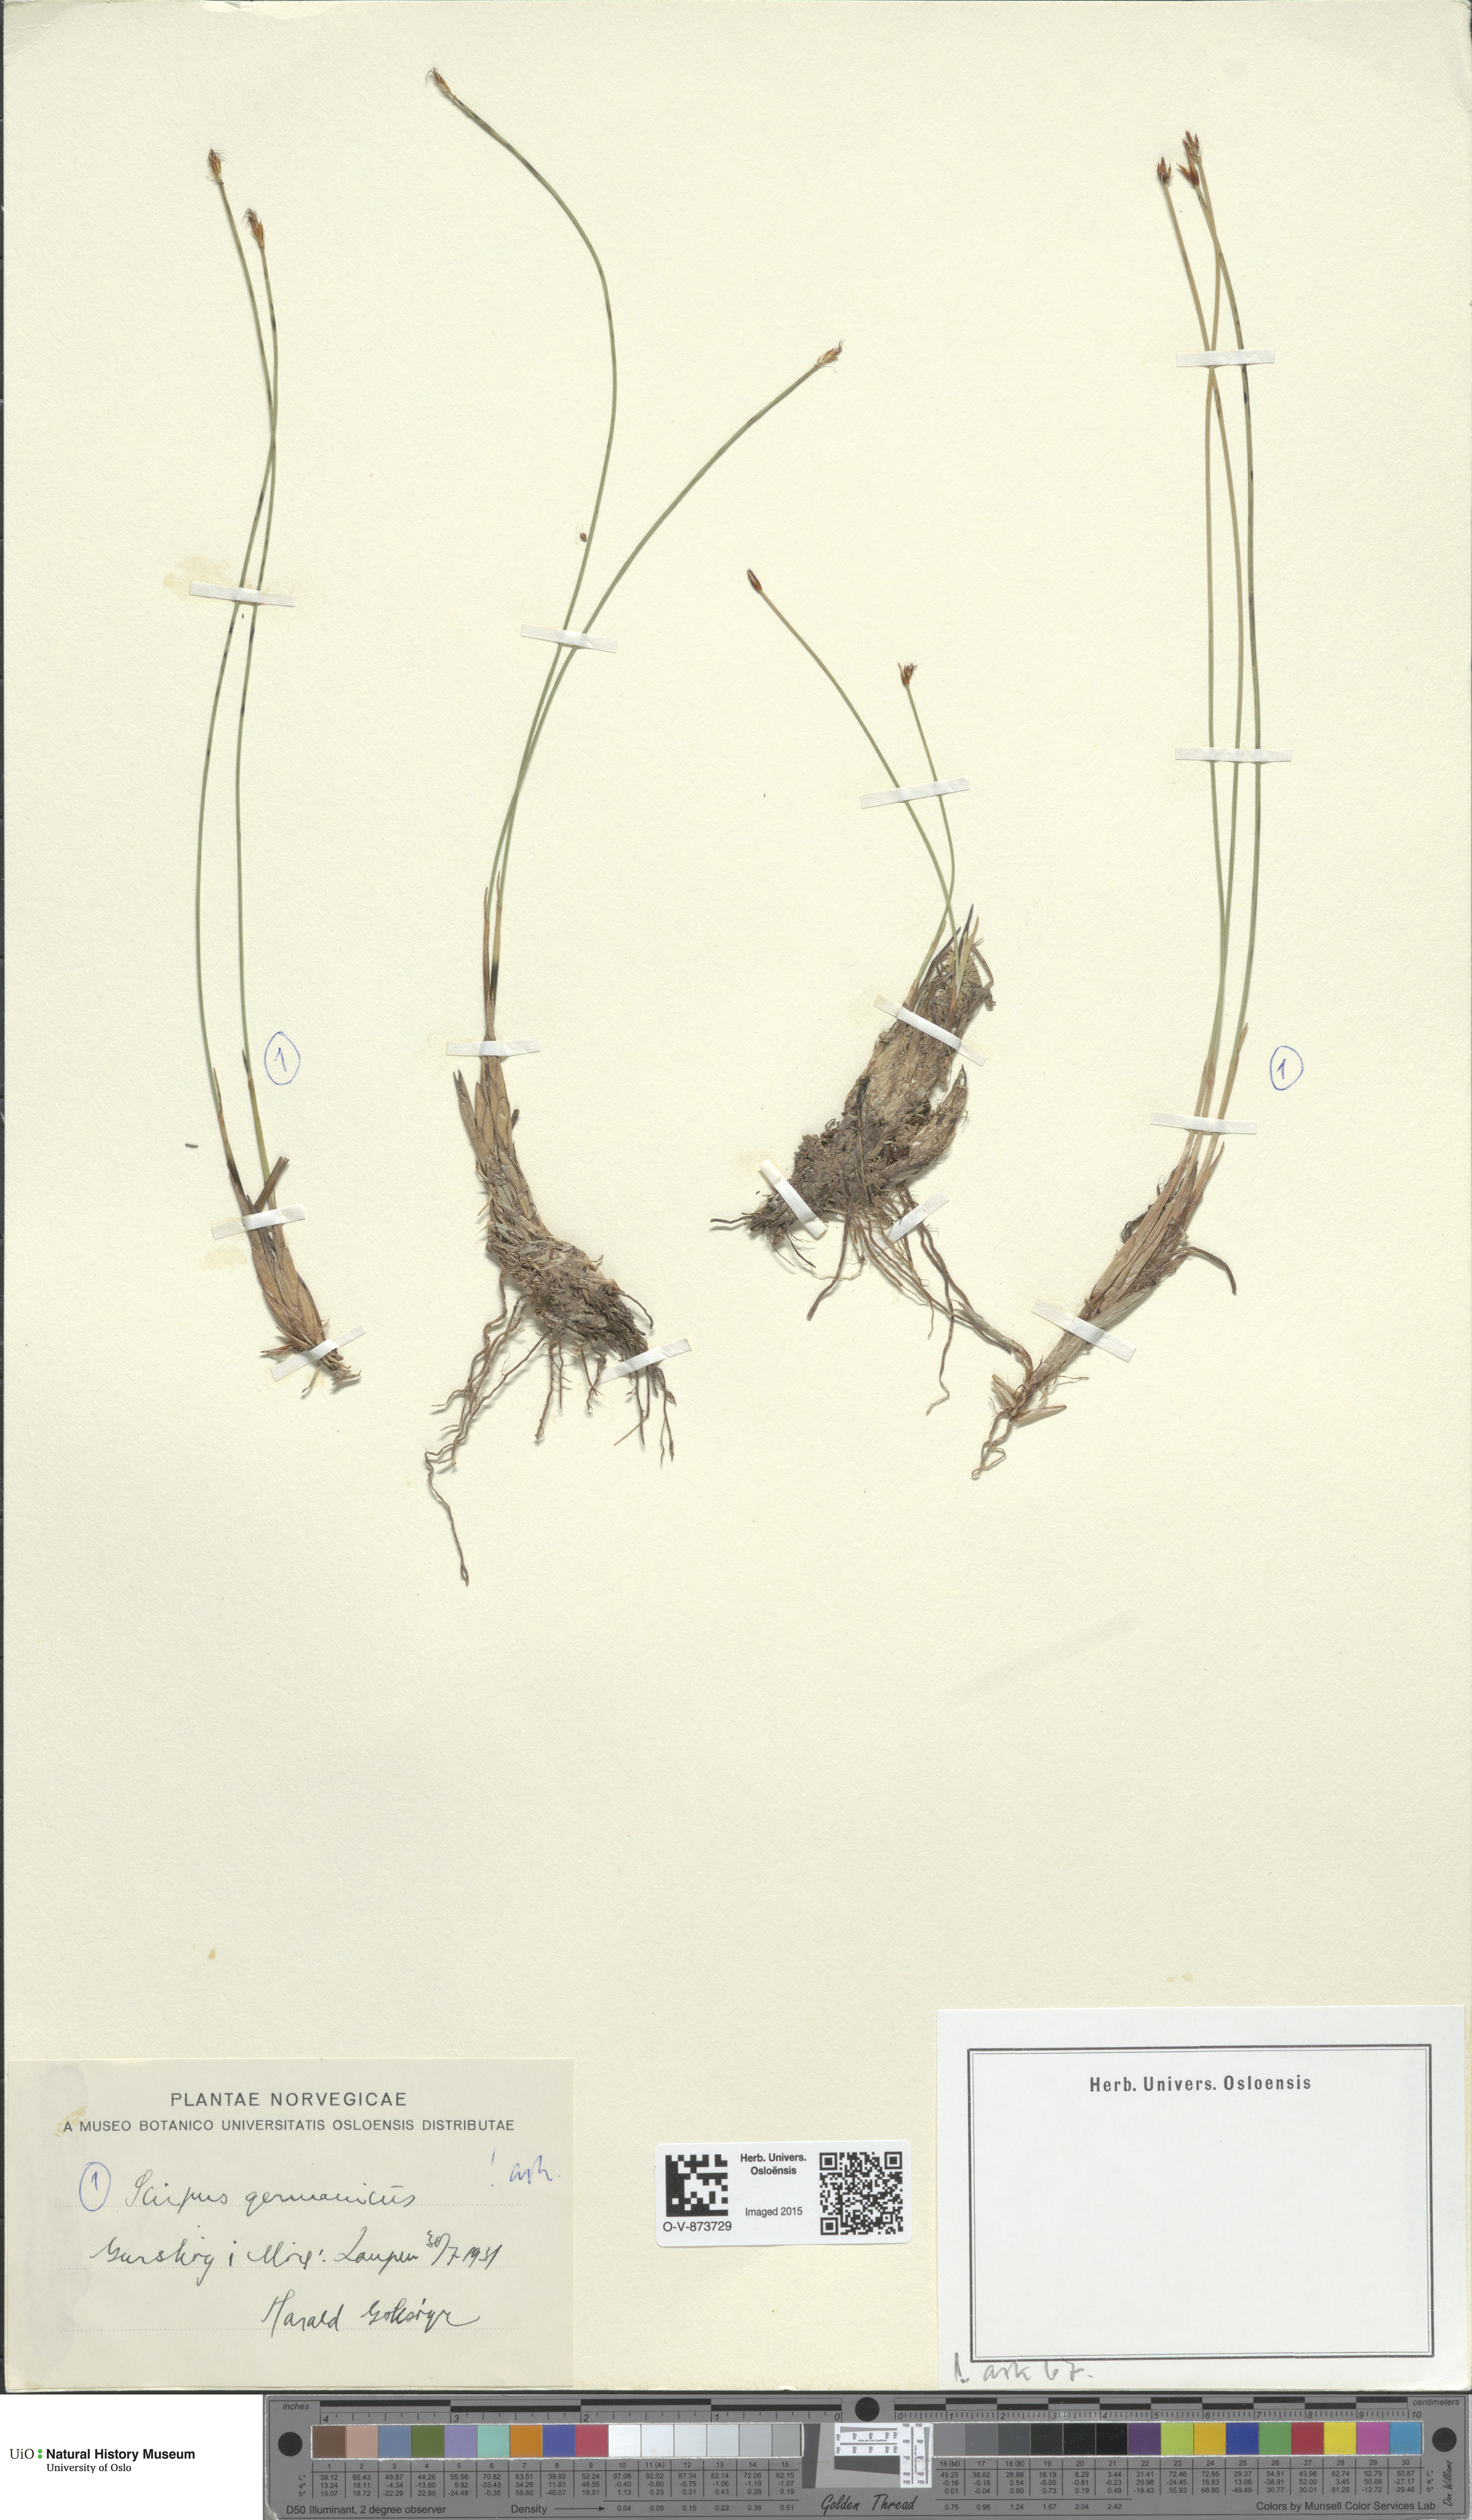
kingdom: Plantae
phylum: Tracheophyta
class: Liliopsida
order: Poales
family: Cyperaceae
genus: Trichophorum
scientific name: Trichophorum cespitosum
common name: Cespitose bulrush
